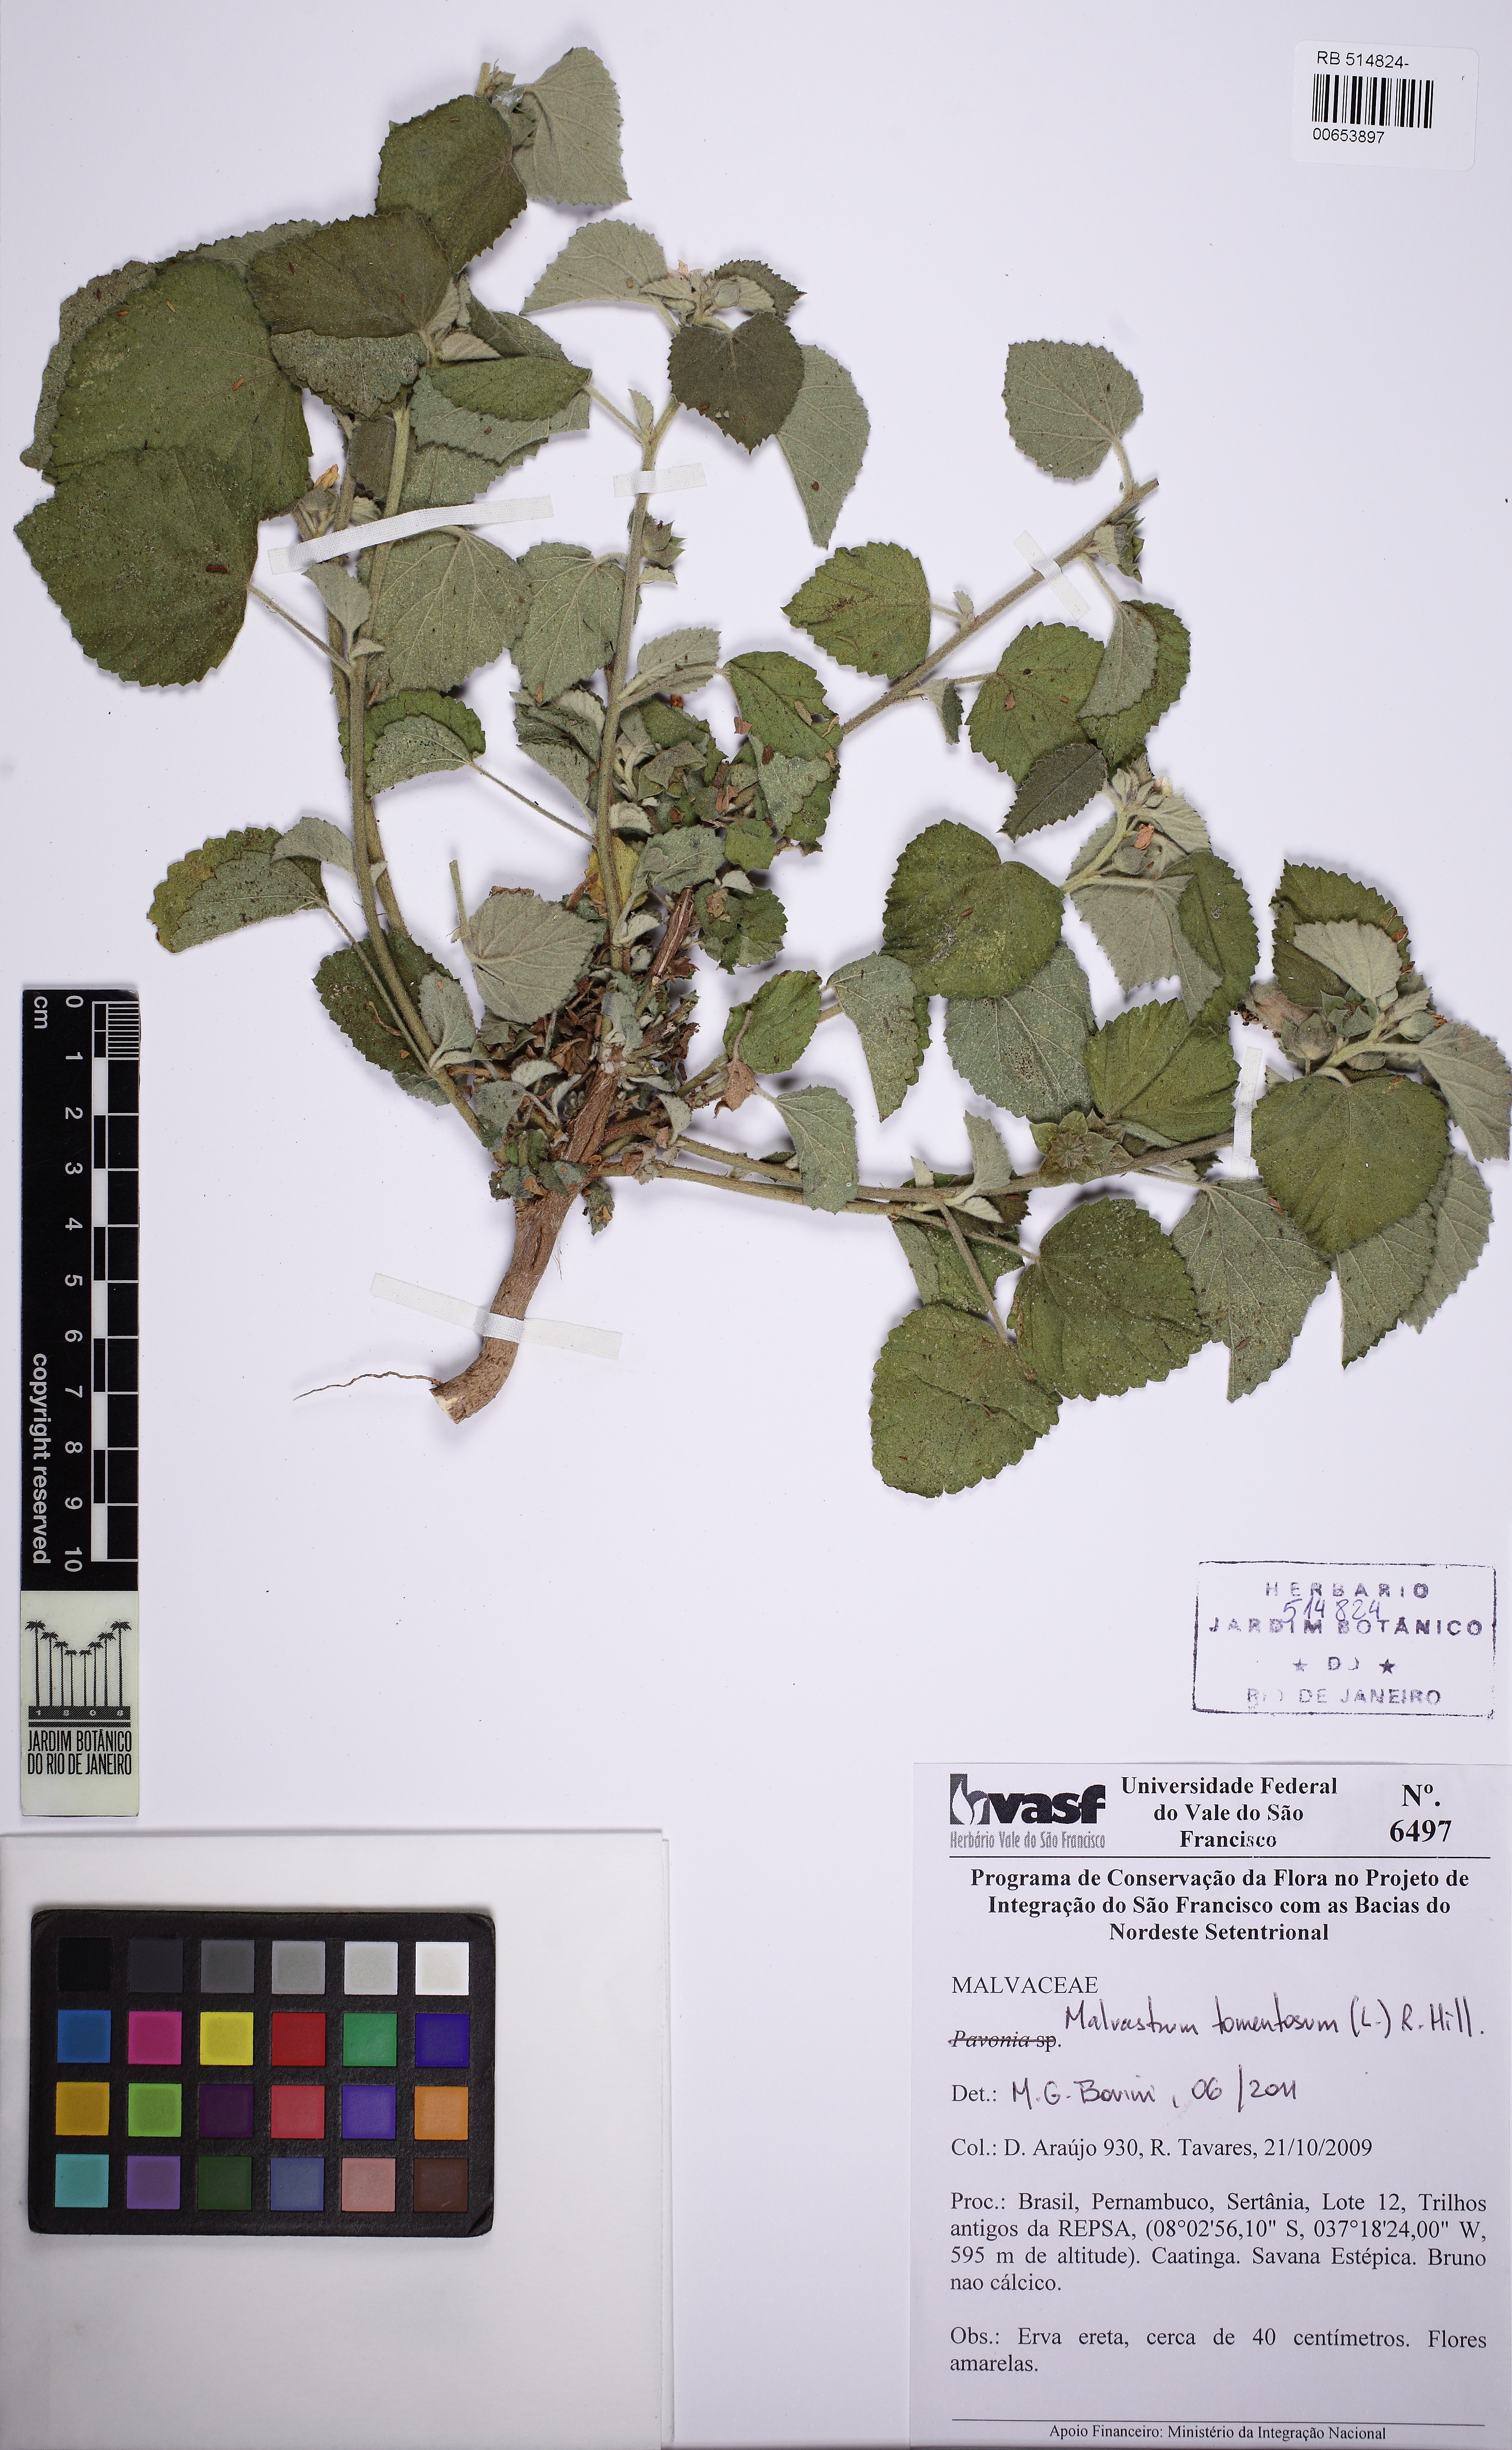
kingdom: Plantae
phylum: Tracheophyta
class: Magnoliopsida
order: Malvales
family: Malvaceae
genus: Malvastrum
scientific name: Malvastrum tomentosum
